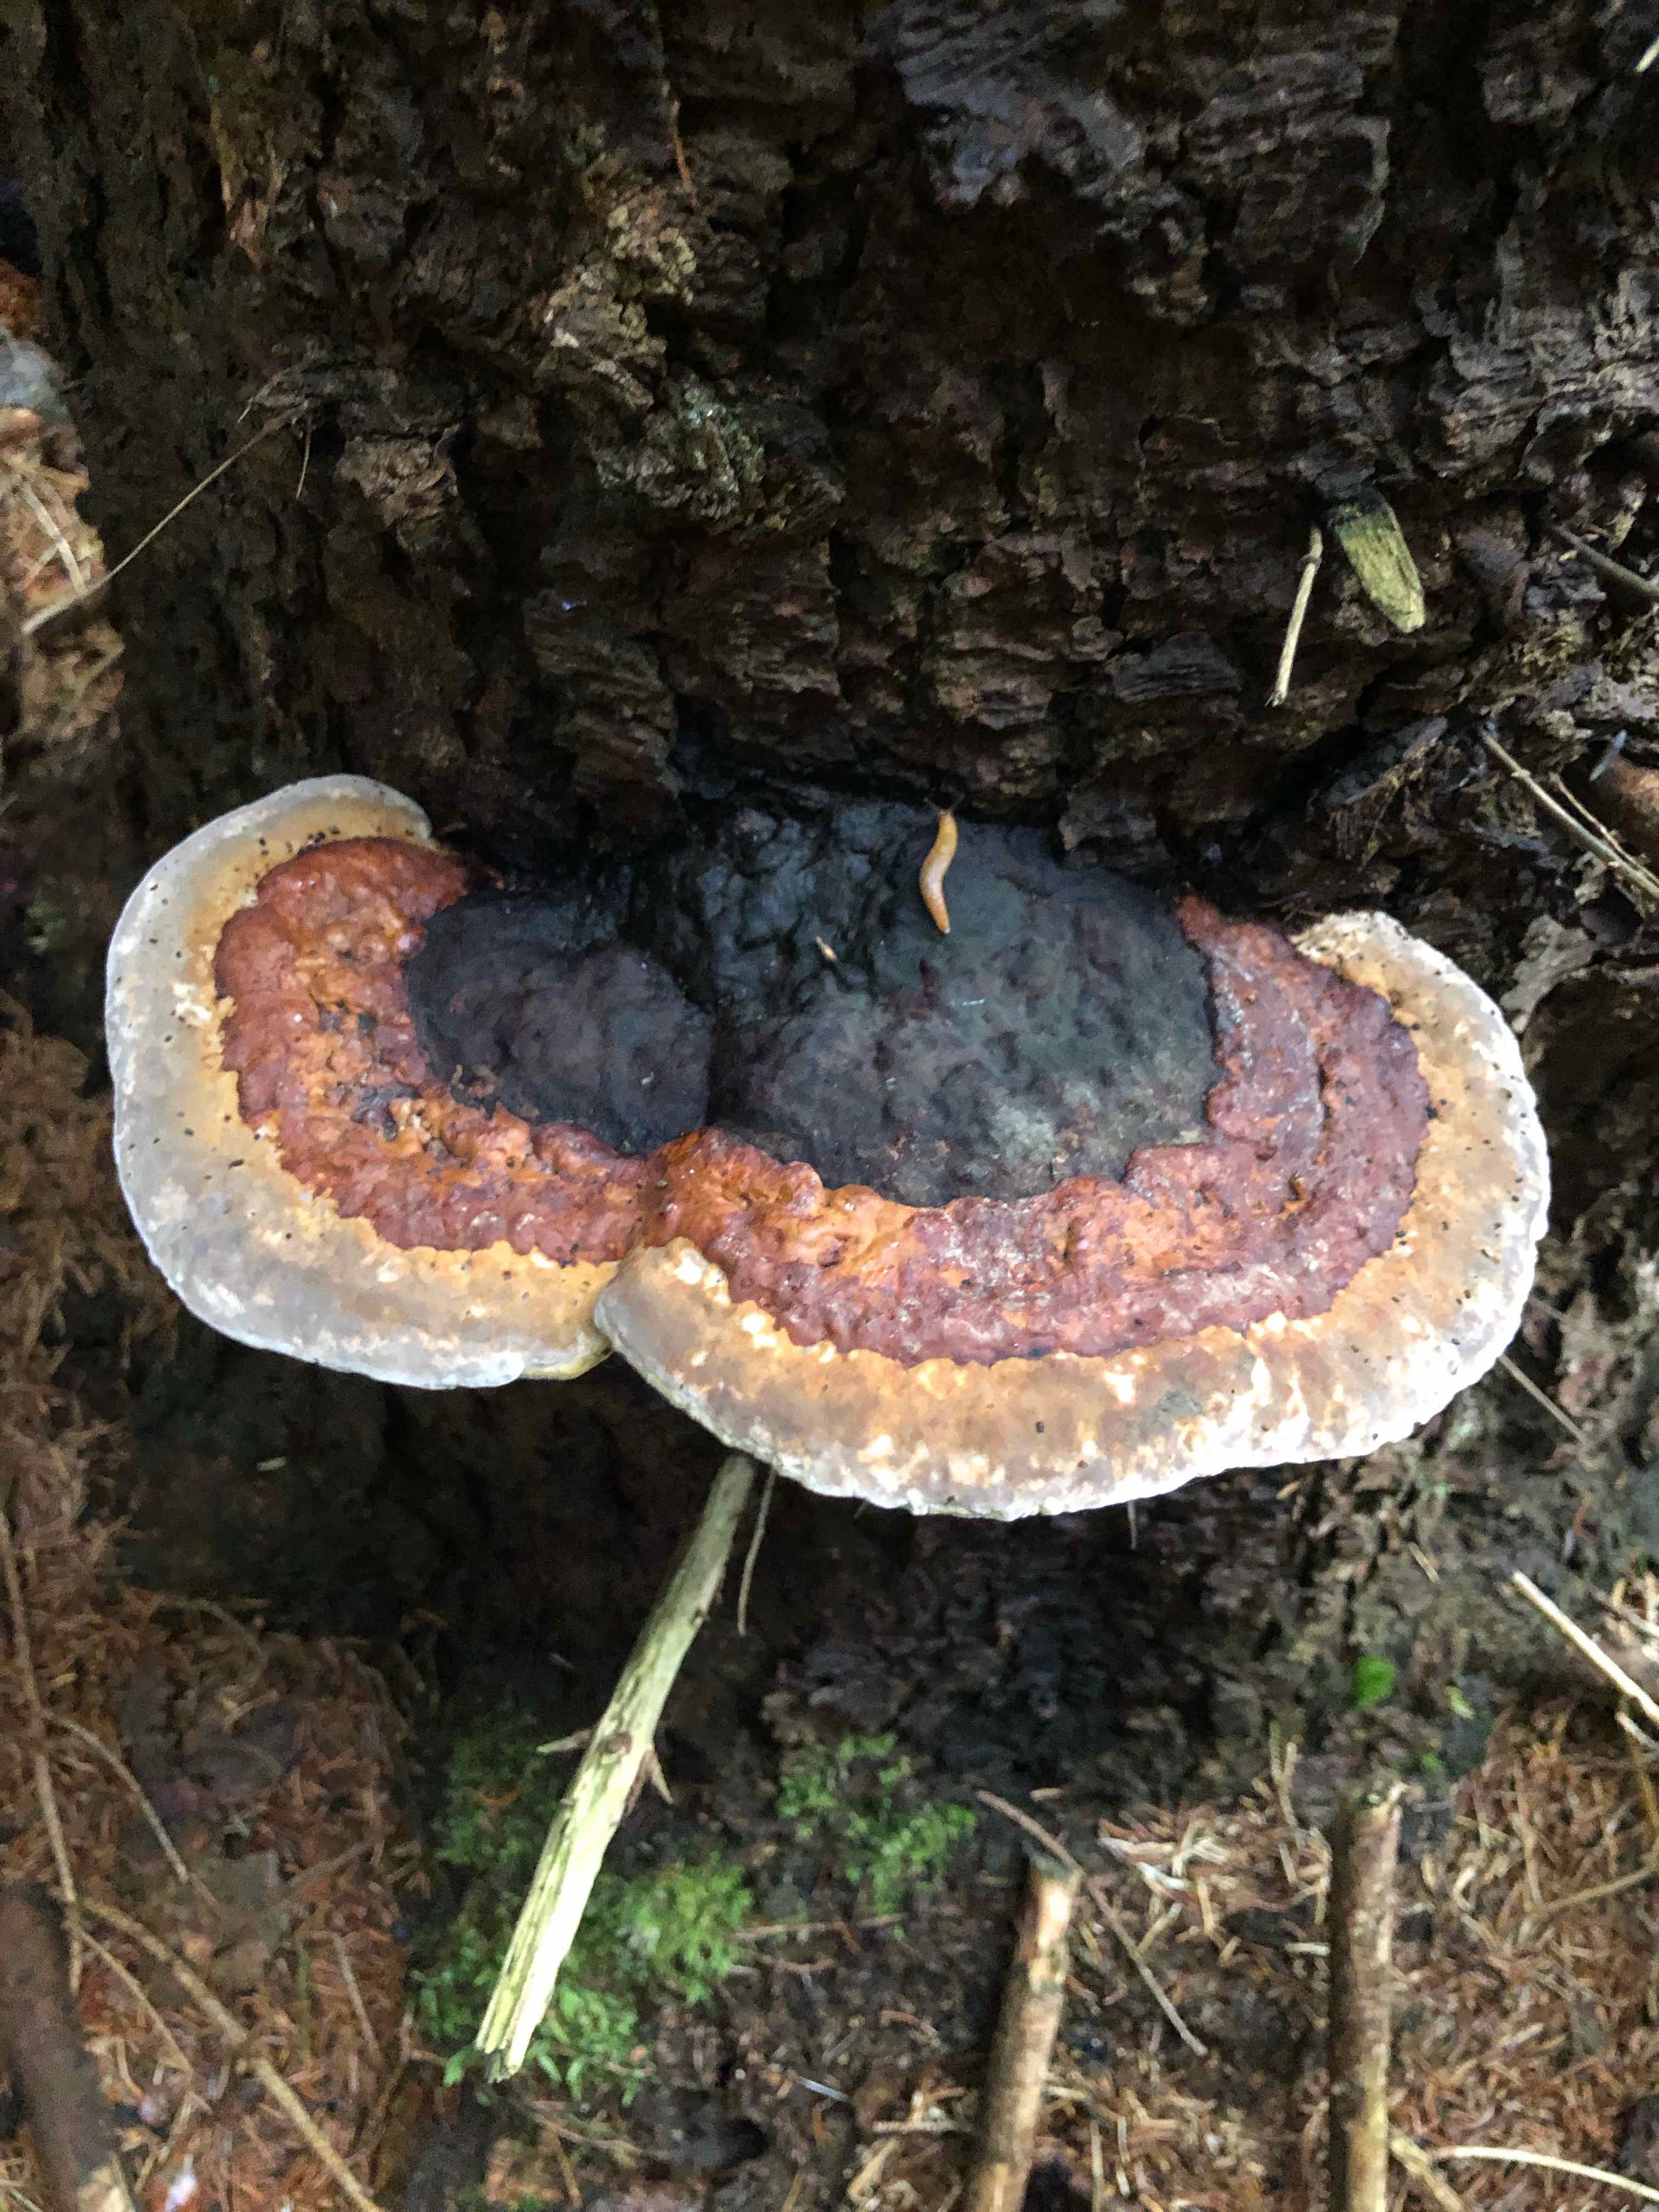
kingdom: Fungi
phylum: Basidiomycota
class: Agaricomycetes
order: Polyporales
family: Fomitopsidaceae
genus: Fomitopsis
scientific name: Fomitopsis pinicola
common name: randbæltet hovporesvamp
